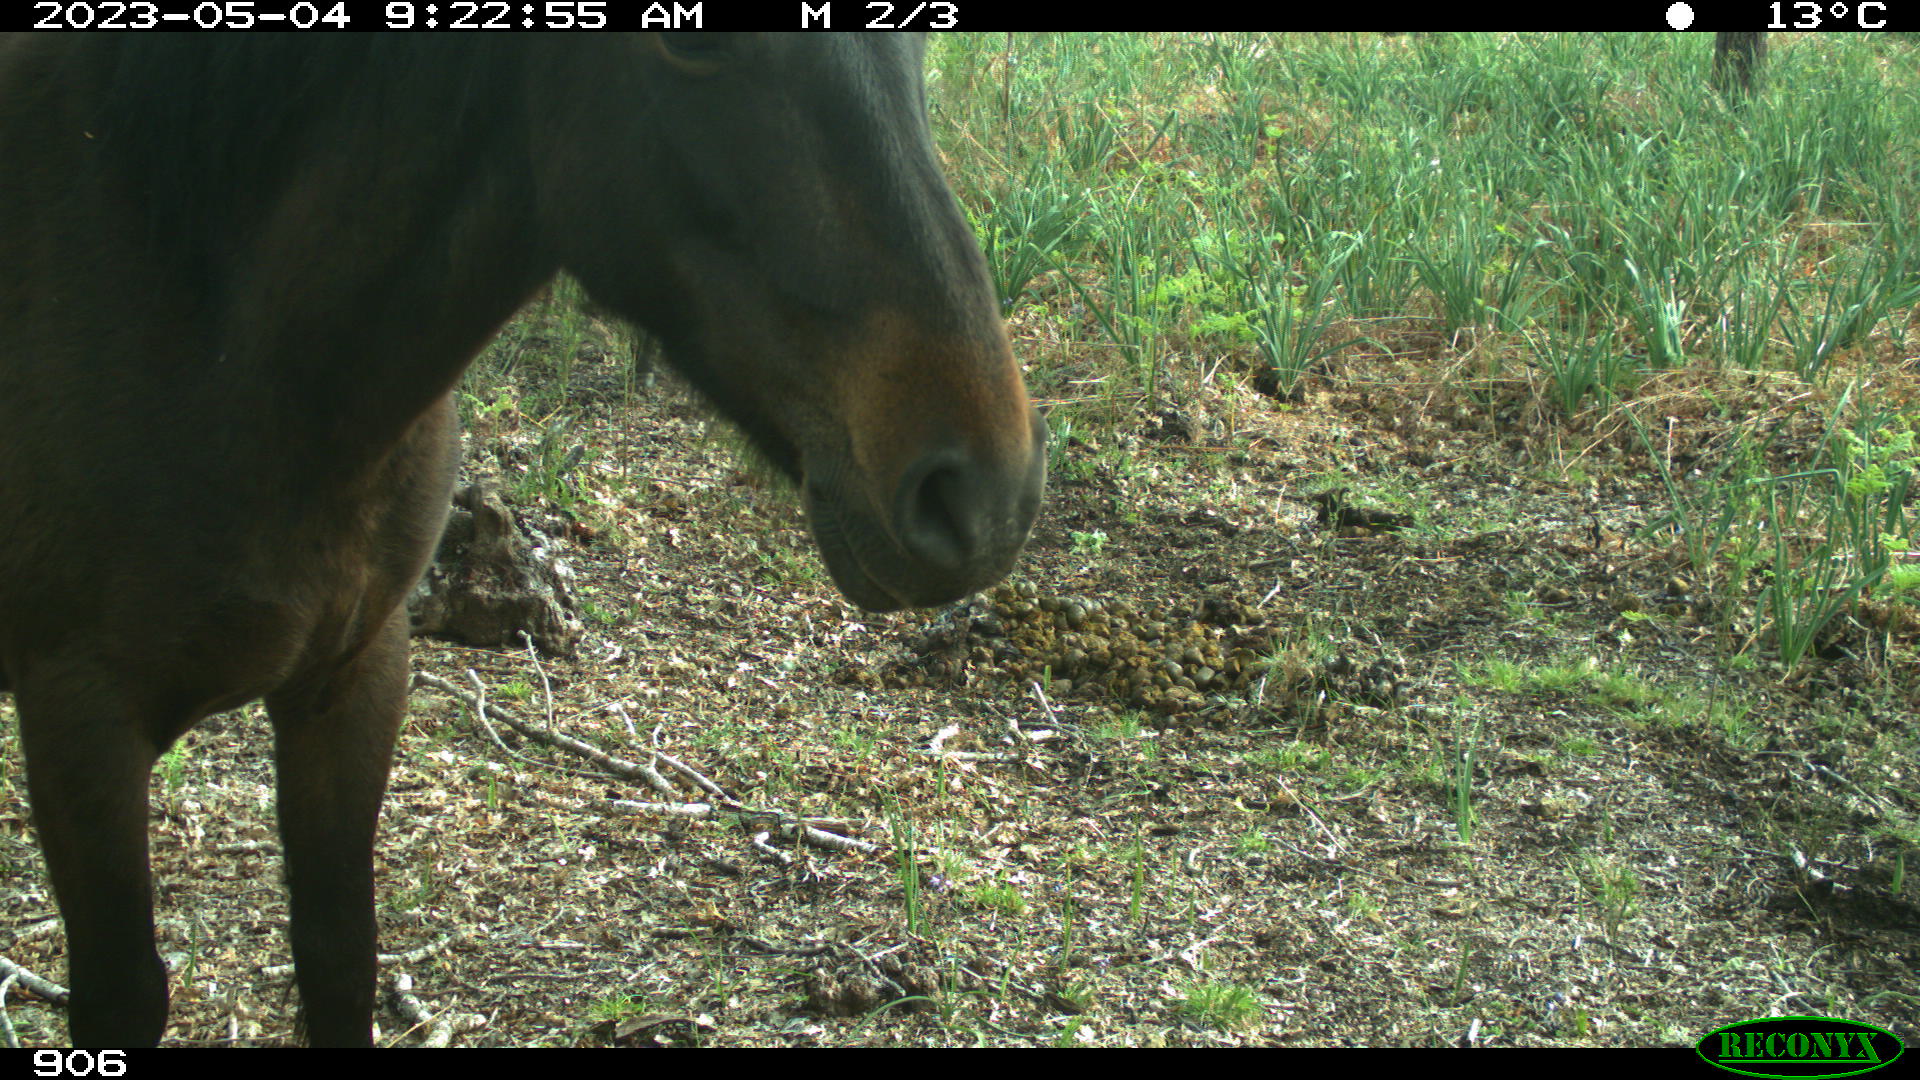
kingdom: Animalia
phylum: Chordata
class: Mammalia
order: Perissodactyla
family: Equidae
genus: Equus
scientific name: Equus caballus
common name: Horse
